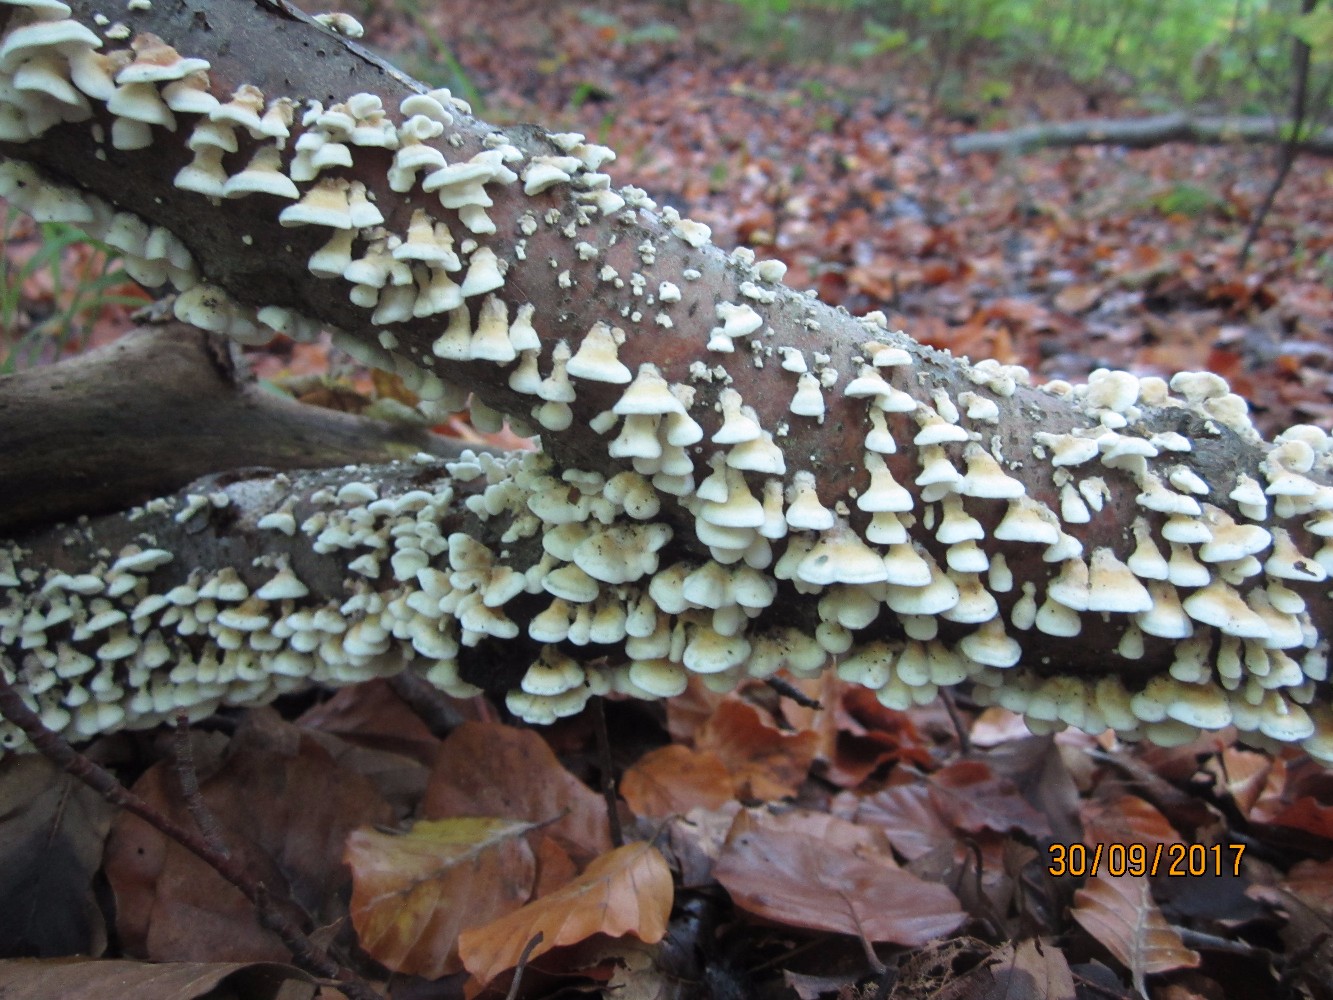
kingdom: Fungi
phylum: Basidiomycota
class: Agaricomycetes
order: Amylocorticiales
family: Amylocorticiaceae
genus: Plicaturopsis
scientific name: Plicaturopsis crispa
